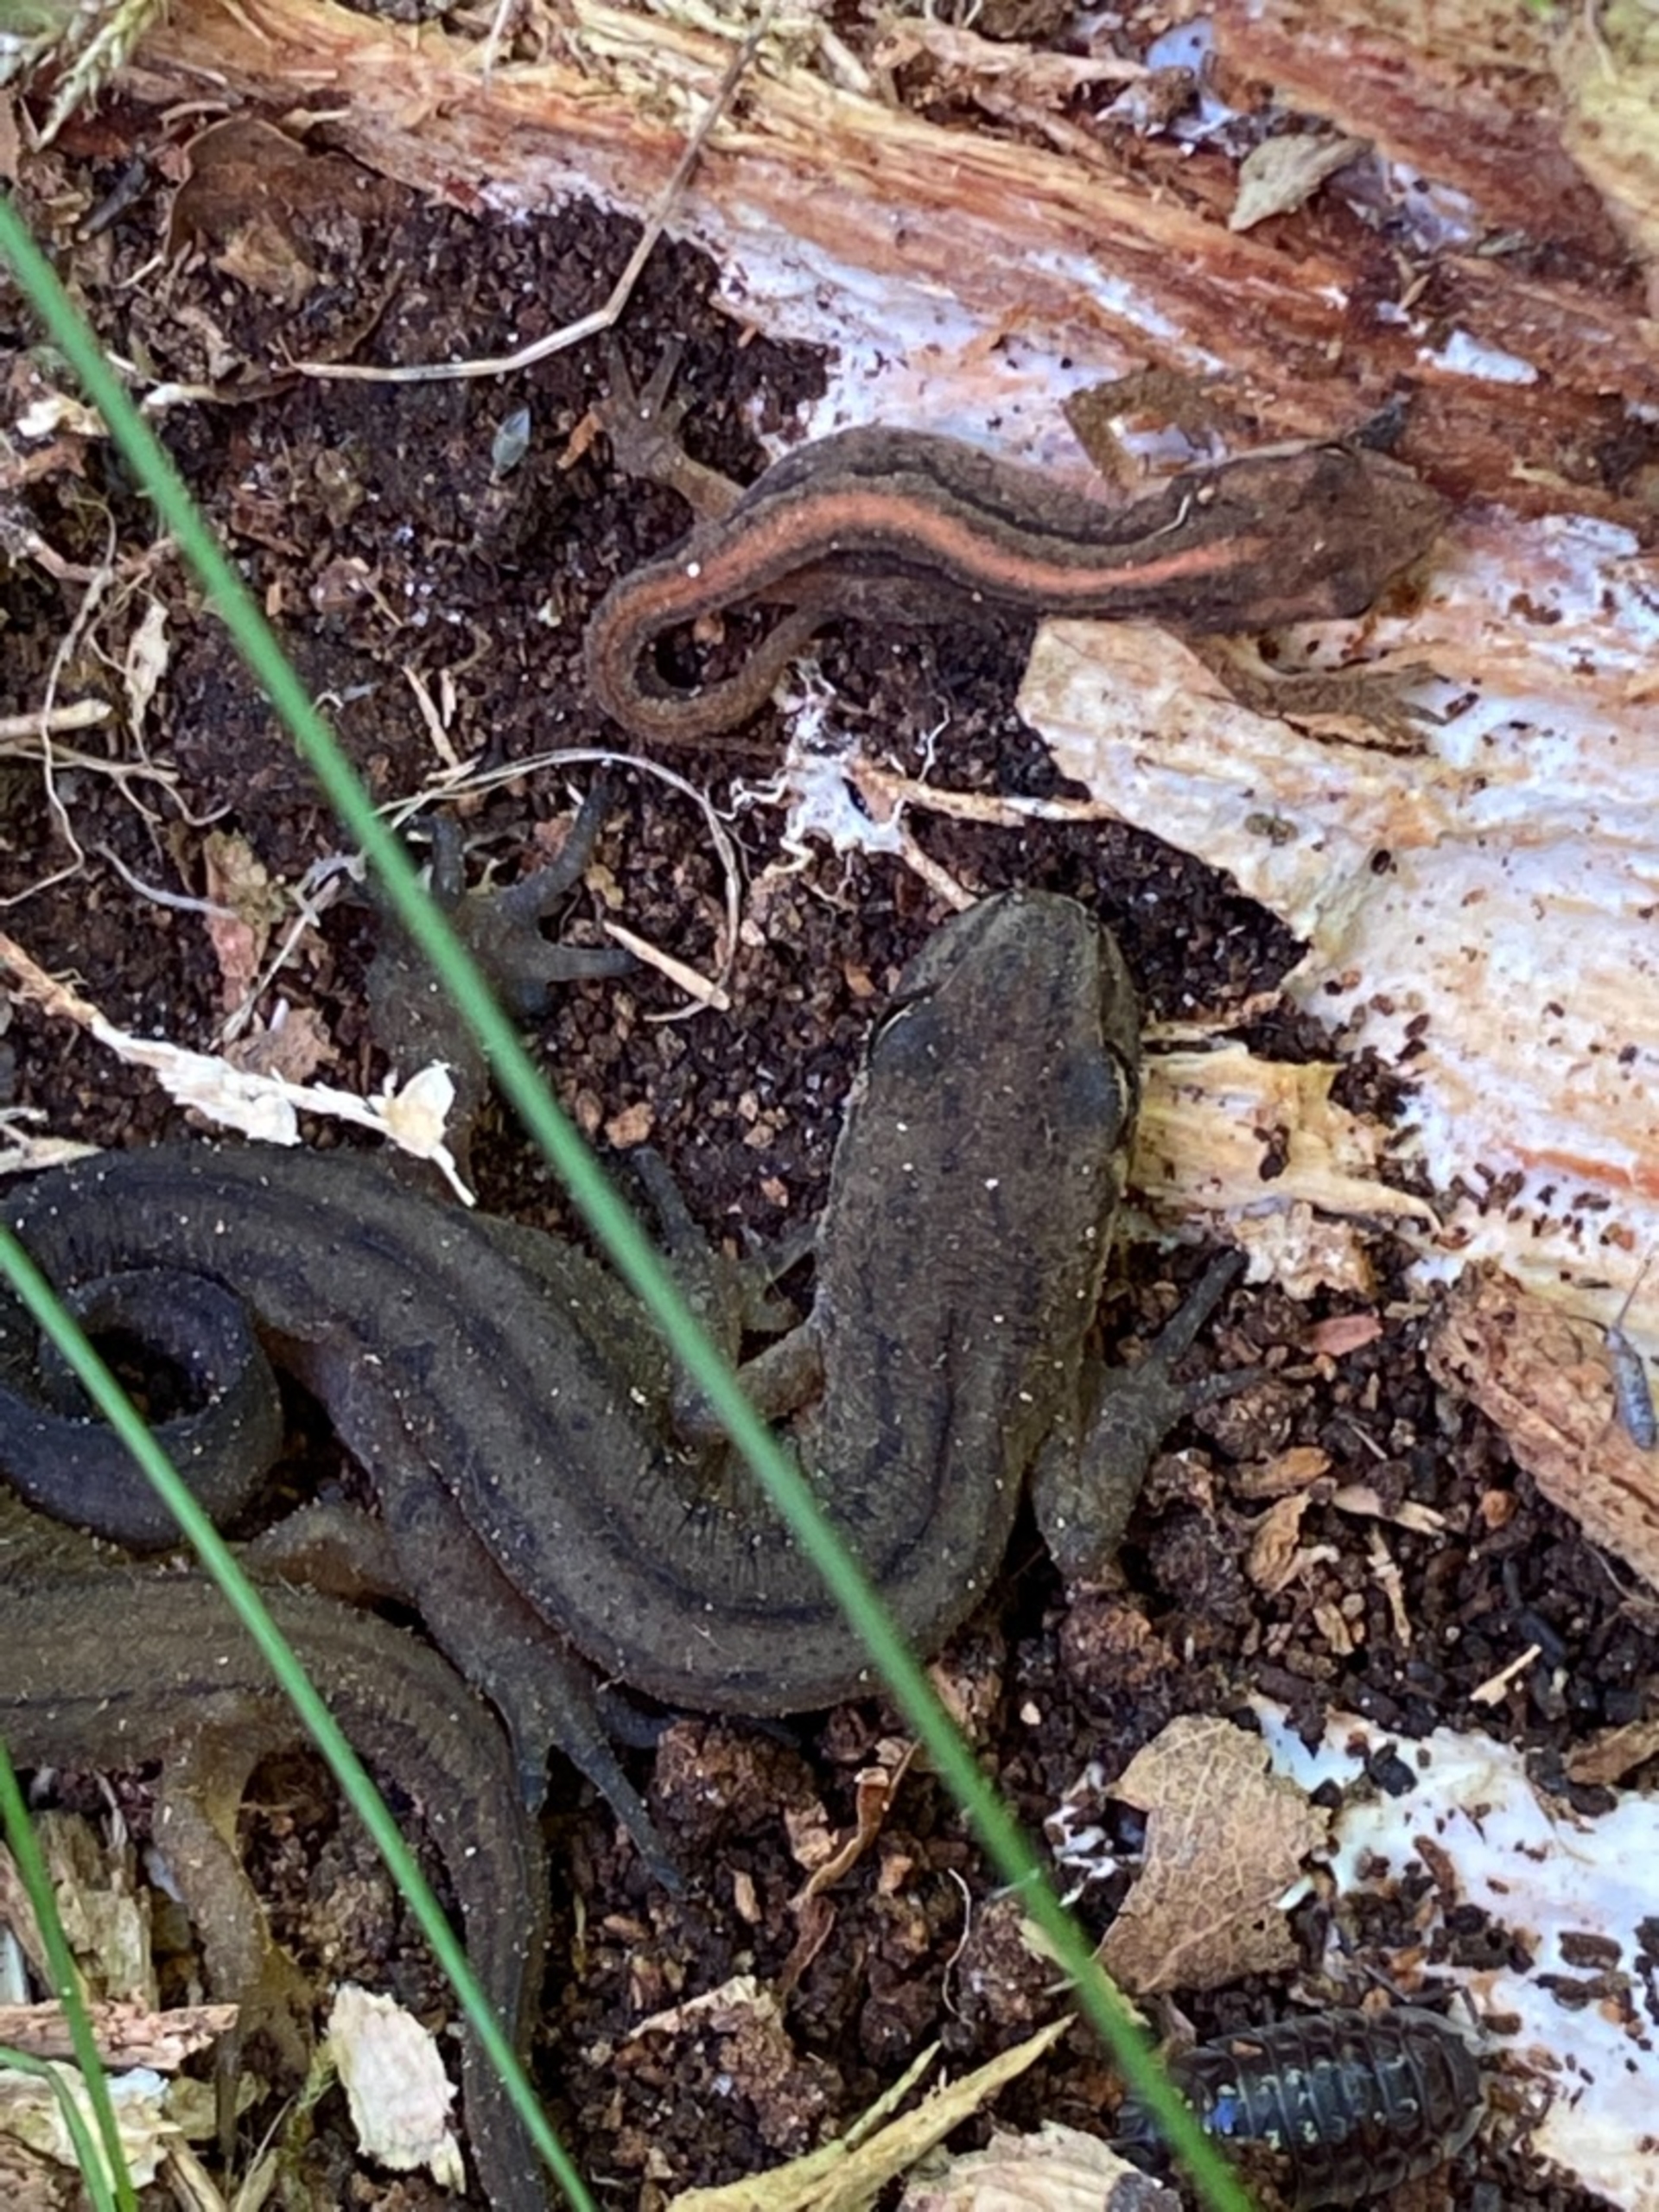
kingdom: Animalia
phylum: Chordata
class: Amphibia
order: Caudata
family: Salamandridae
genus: Lissotriton
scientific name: Lissotriton vulgaris
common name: Lille vandsalamander
